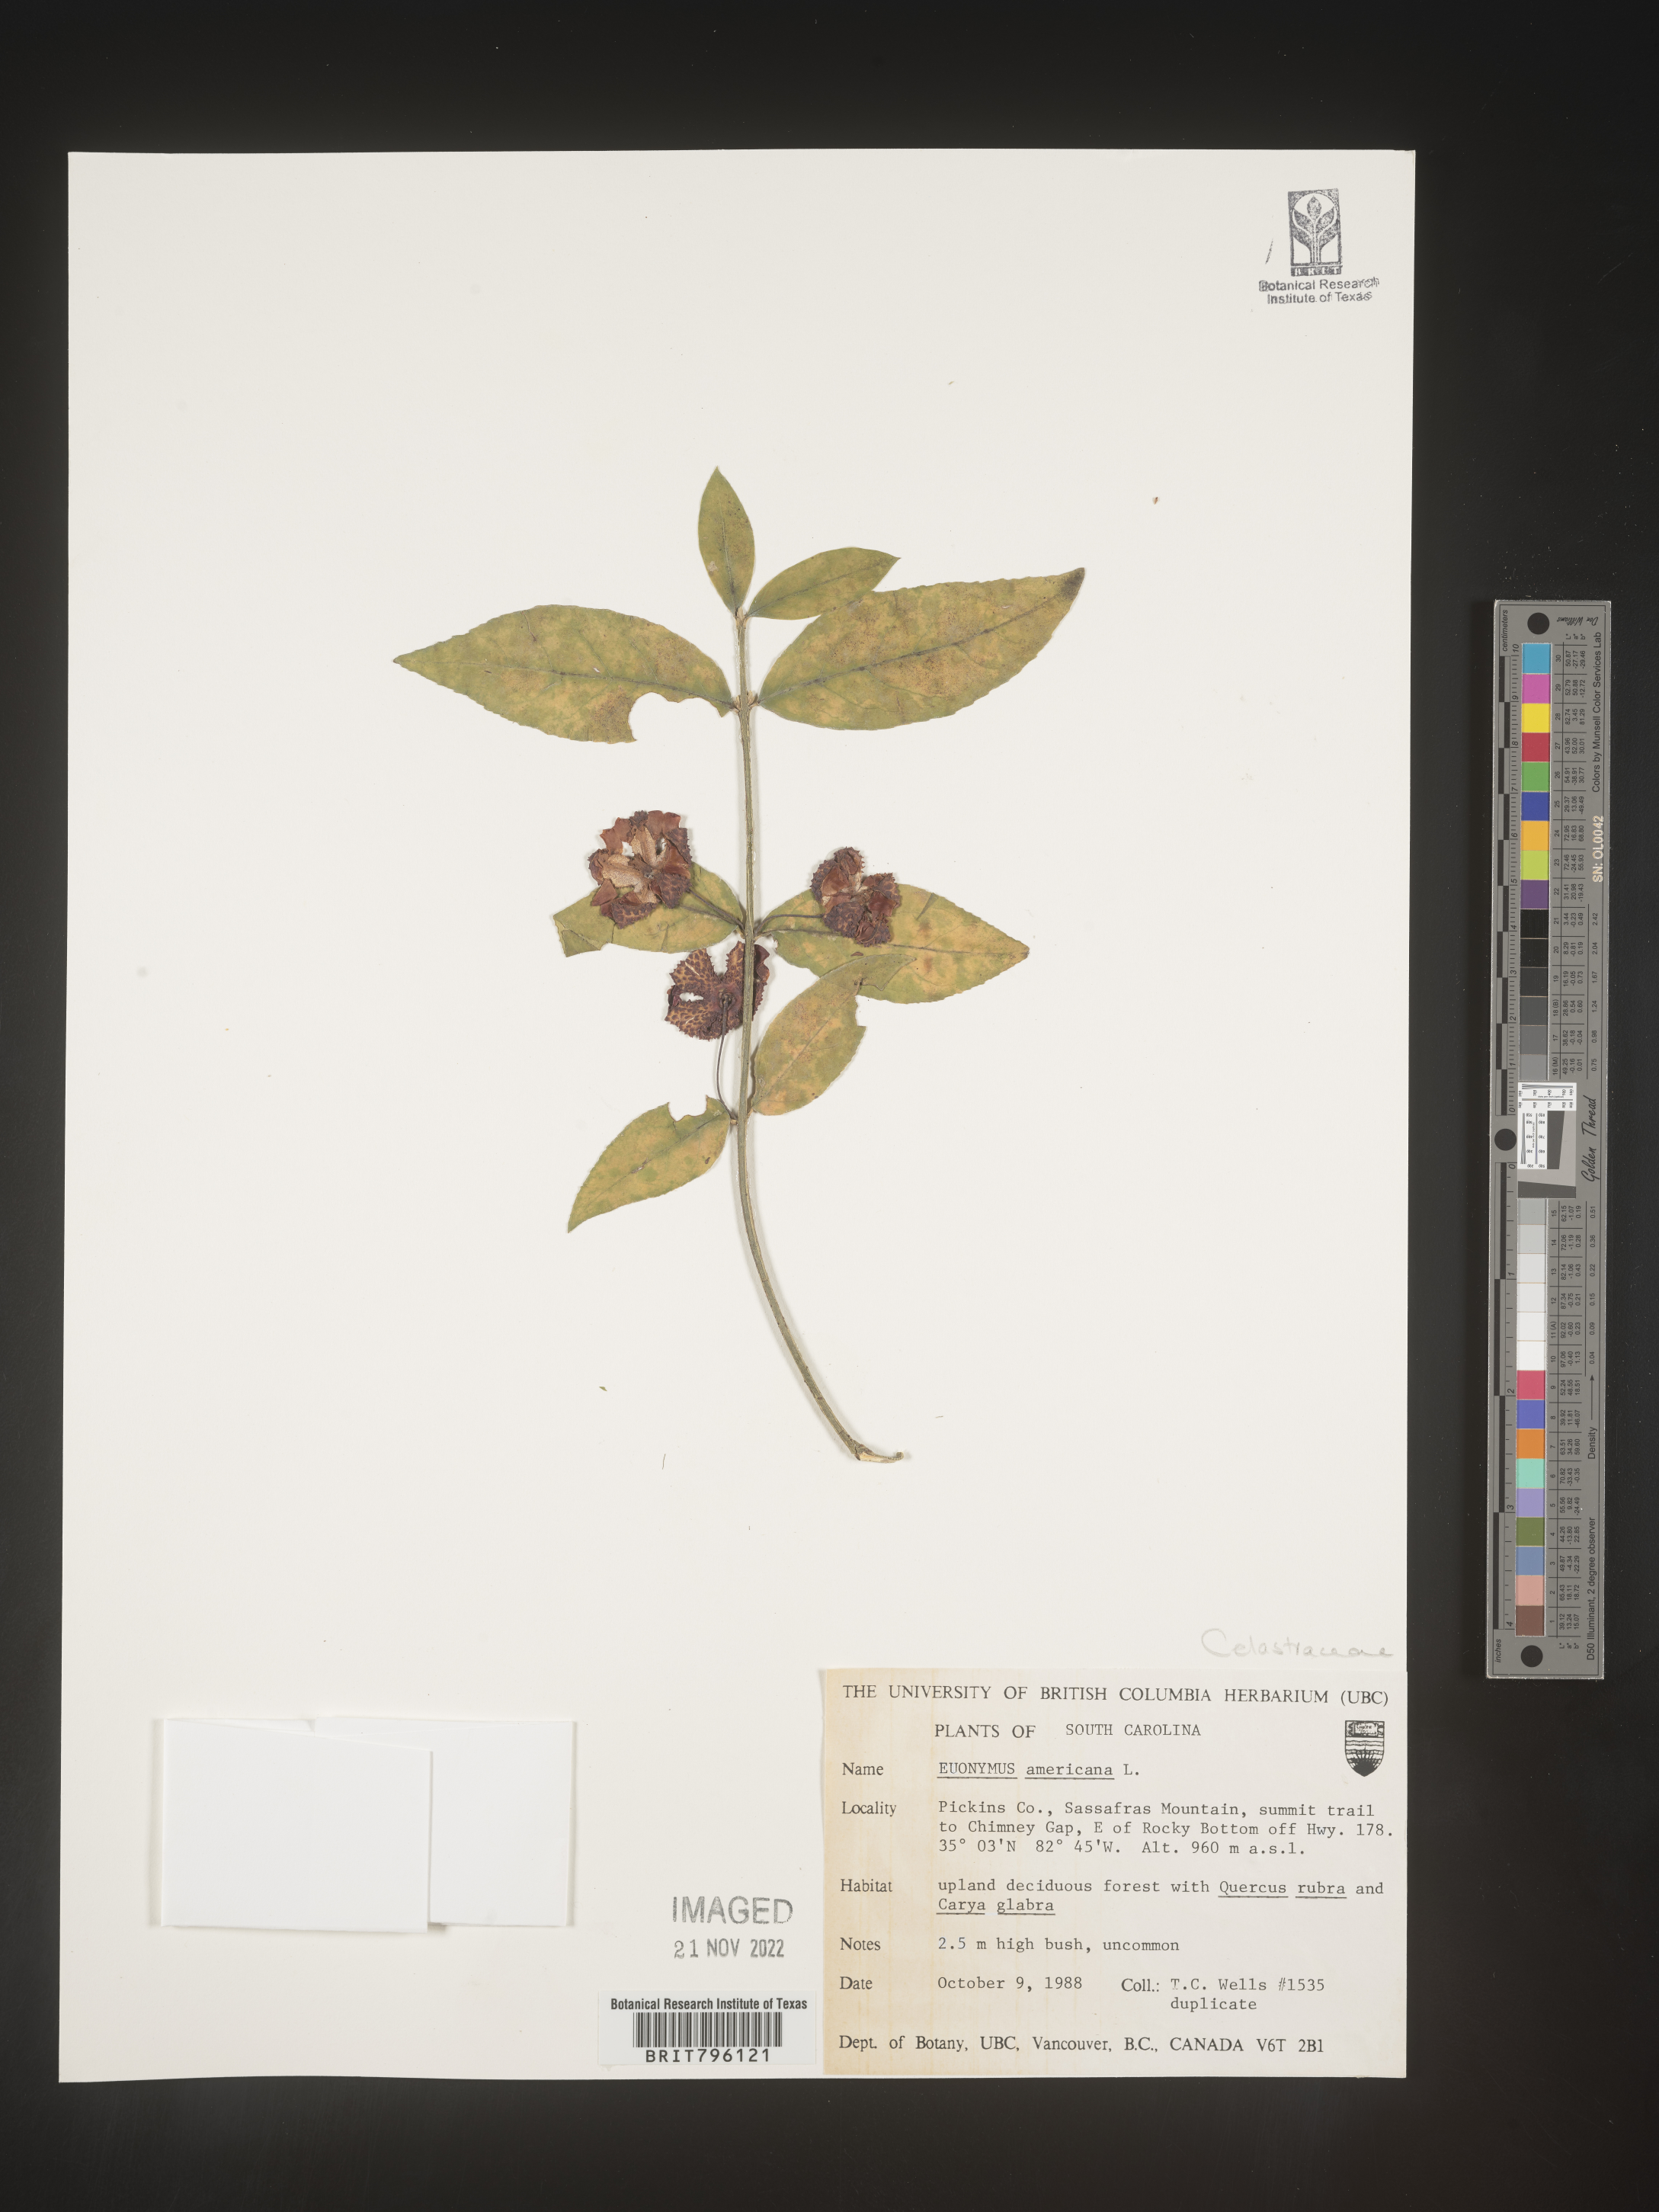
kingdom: Plantae
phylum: Tracheophyta
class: Magnoliopsida
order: Celastrales
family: Celastraceae
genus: Euonymus
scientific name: Euonymus americanus
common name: Bursting-heart
